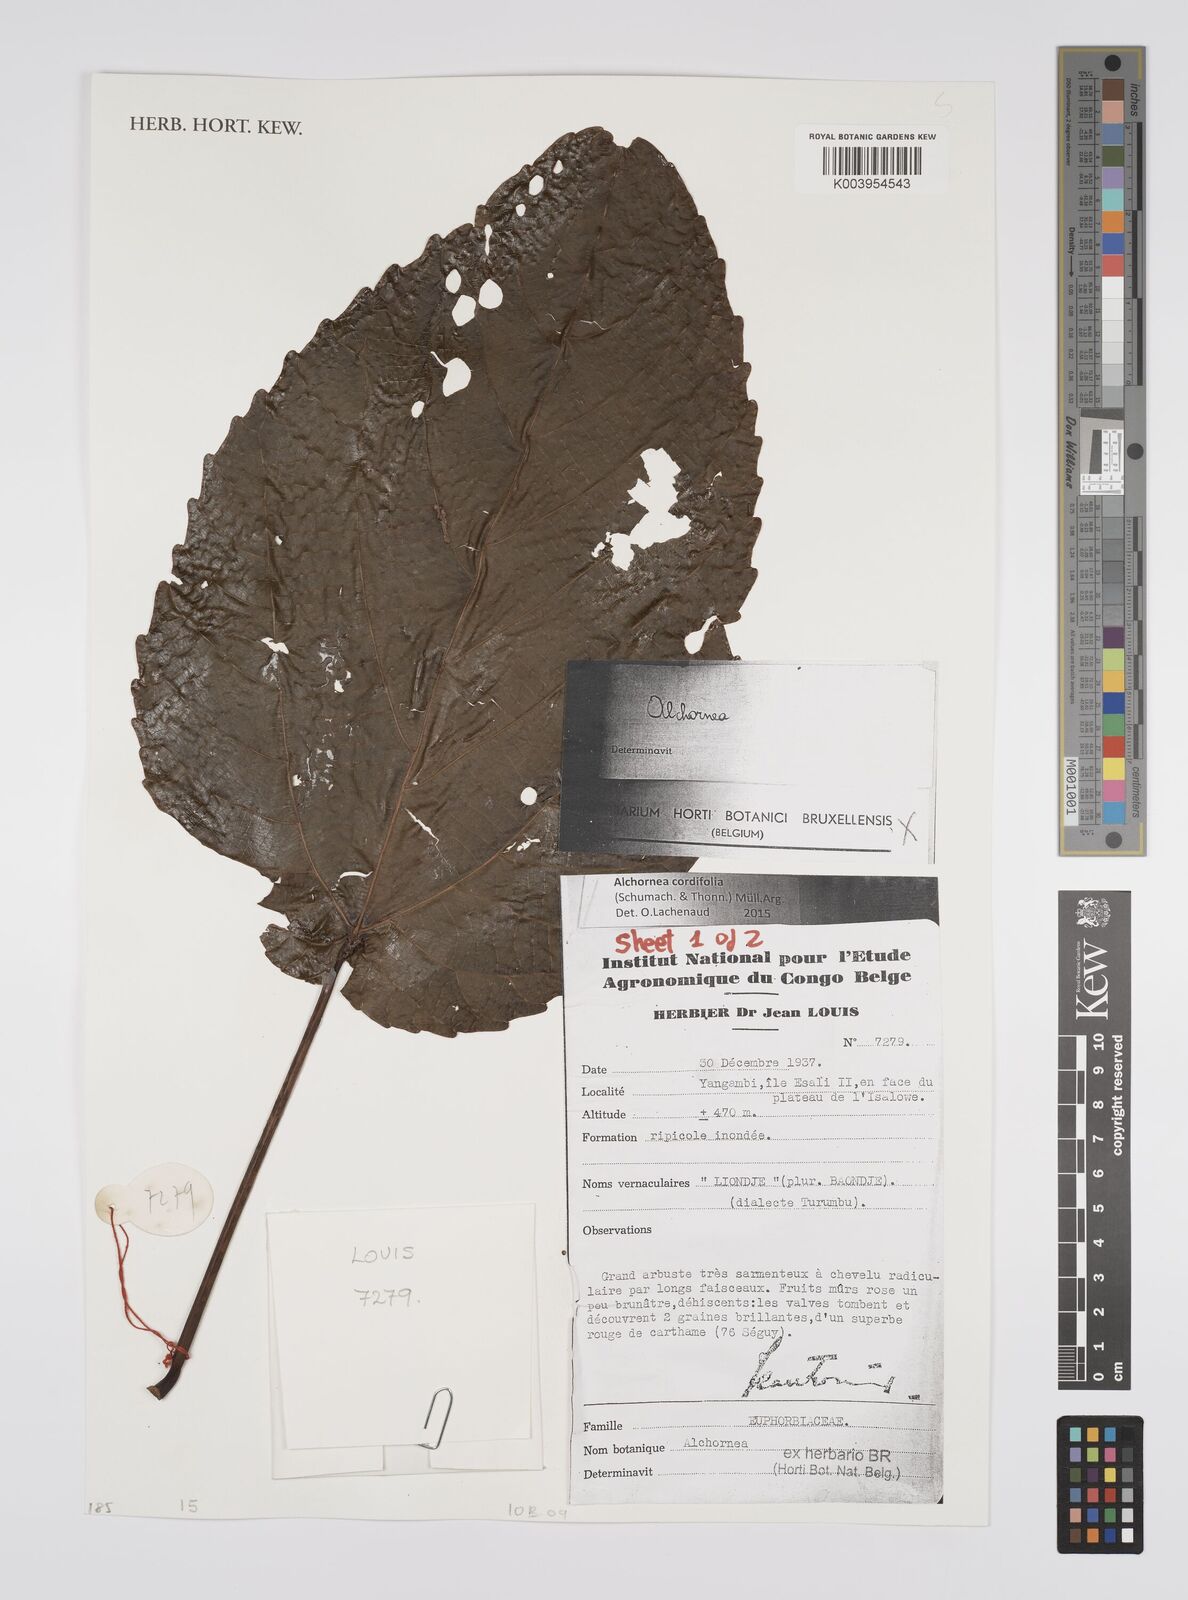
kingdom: Plantae
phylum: Tracheophyta
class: Magnoliopsida
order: Malpighiales
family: Euphorbiaceae
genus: Alchornea
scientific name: Alchornea cordifolia
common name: Christmasbush
